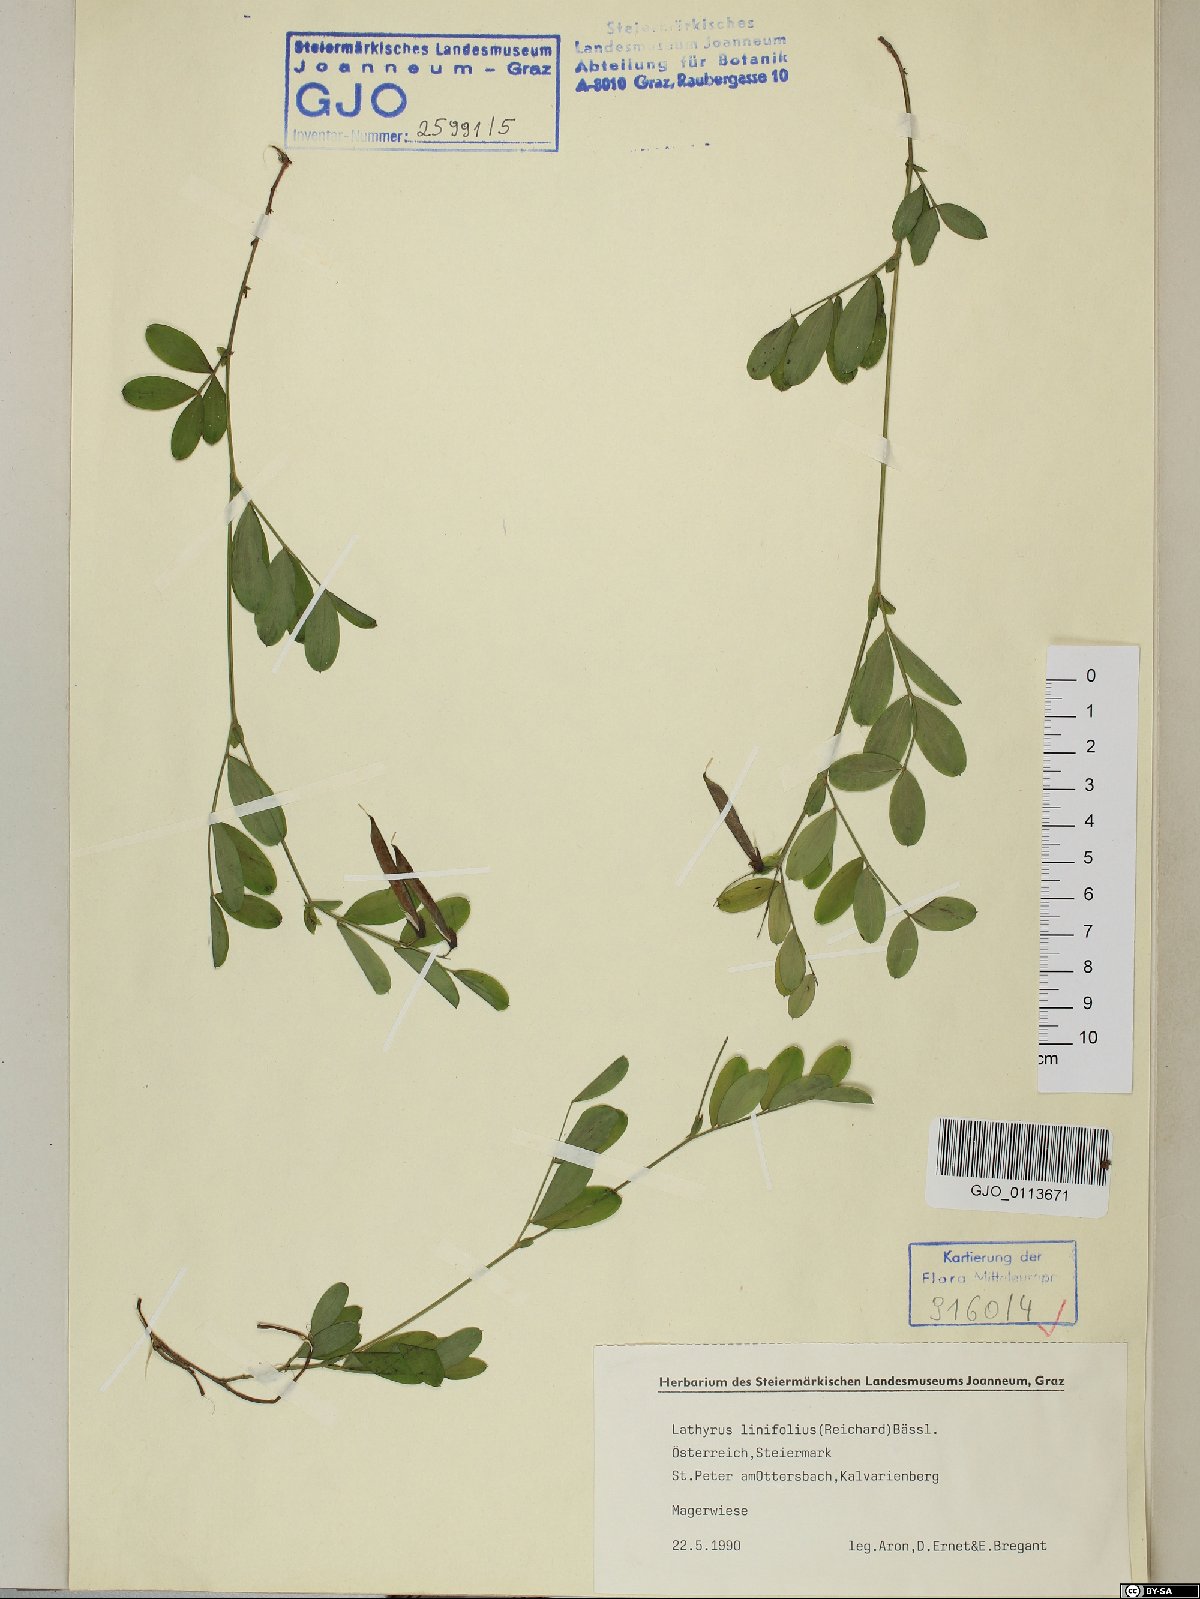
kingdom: Plantae
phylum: Tracheophyta
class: Magnoliopsida
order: Fabales
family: Fabaceae
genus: Lathyrus
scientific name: Lathyrus linifolius
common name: Bitter-vetch
